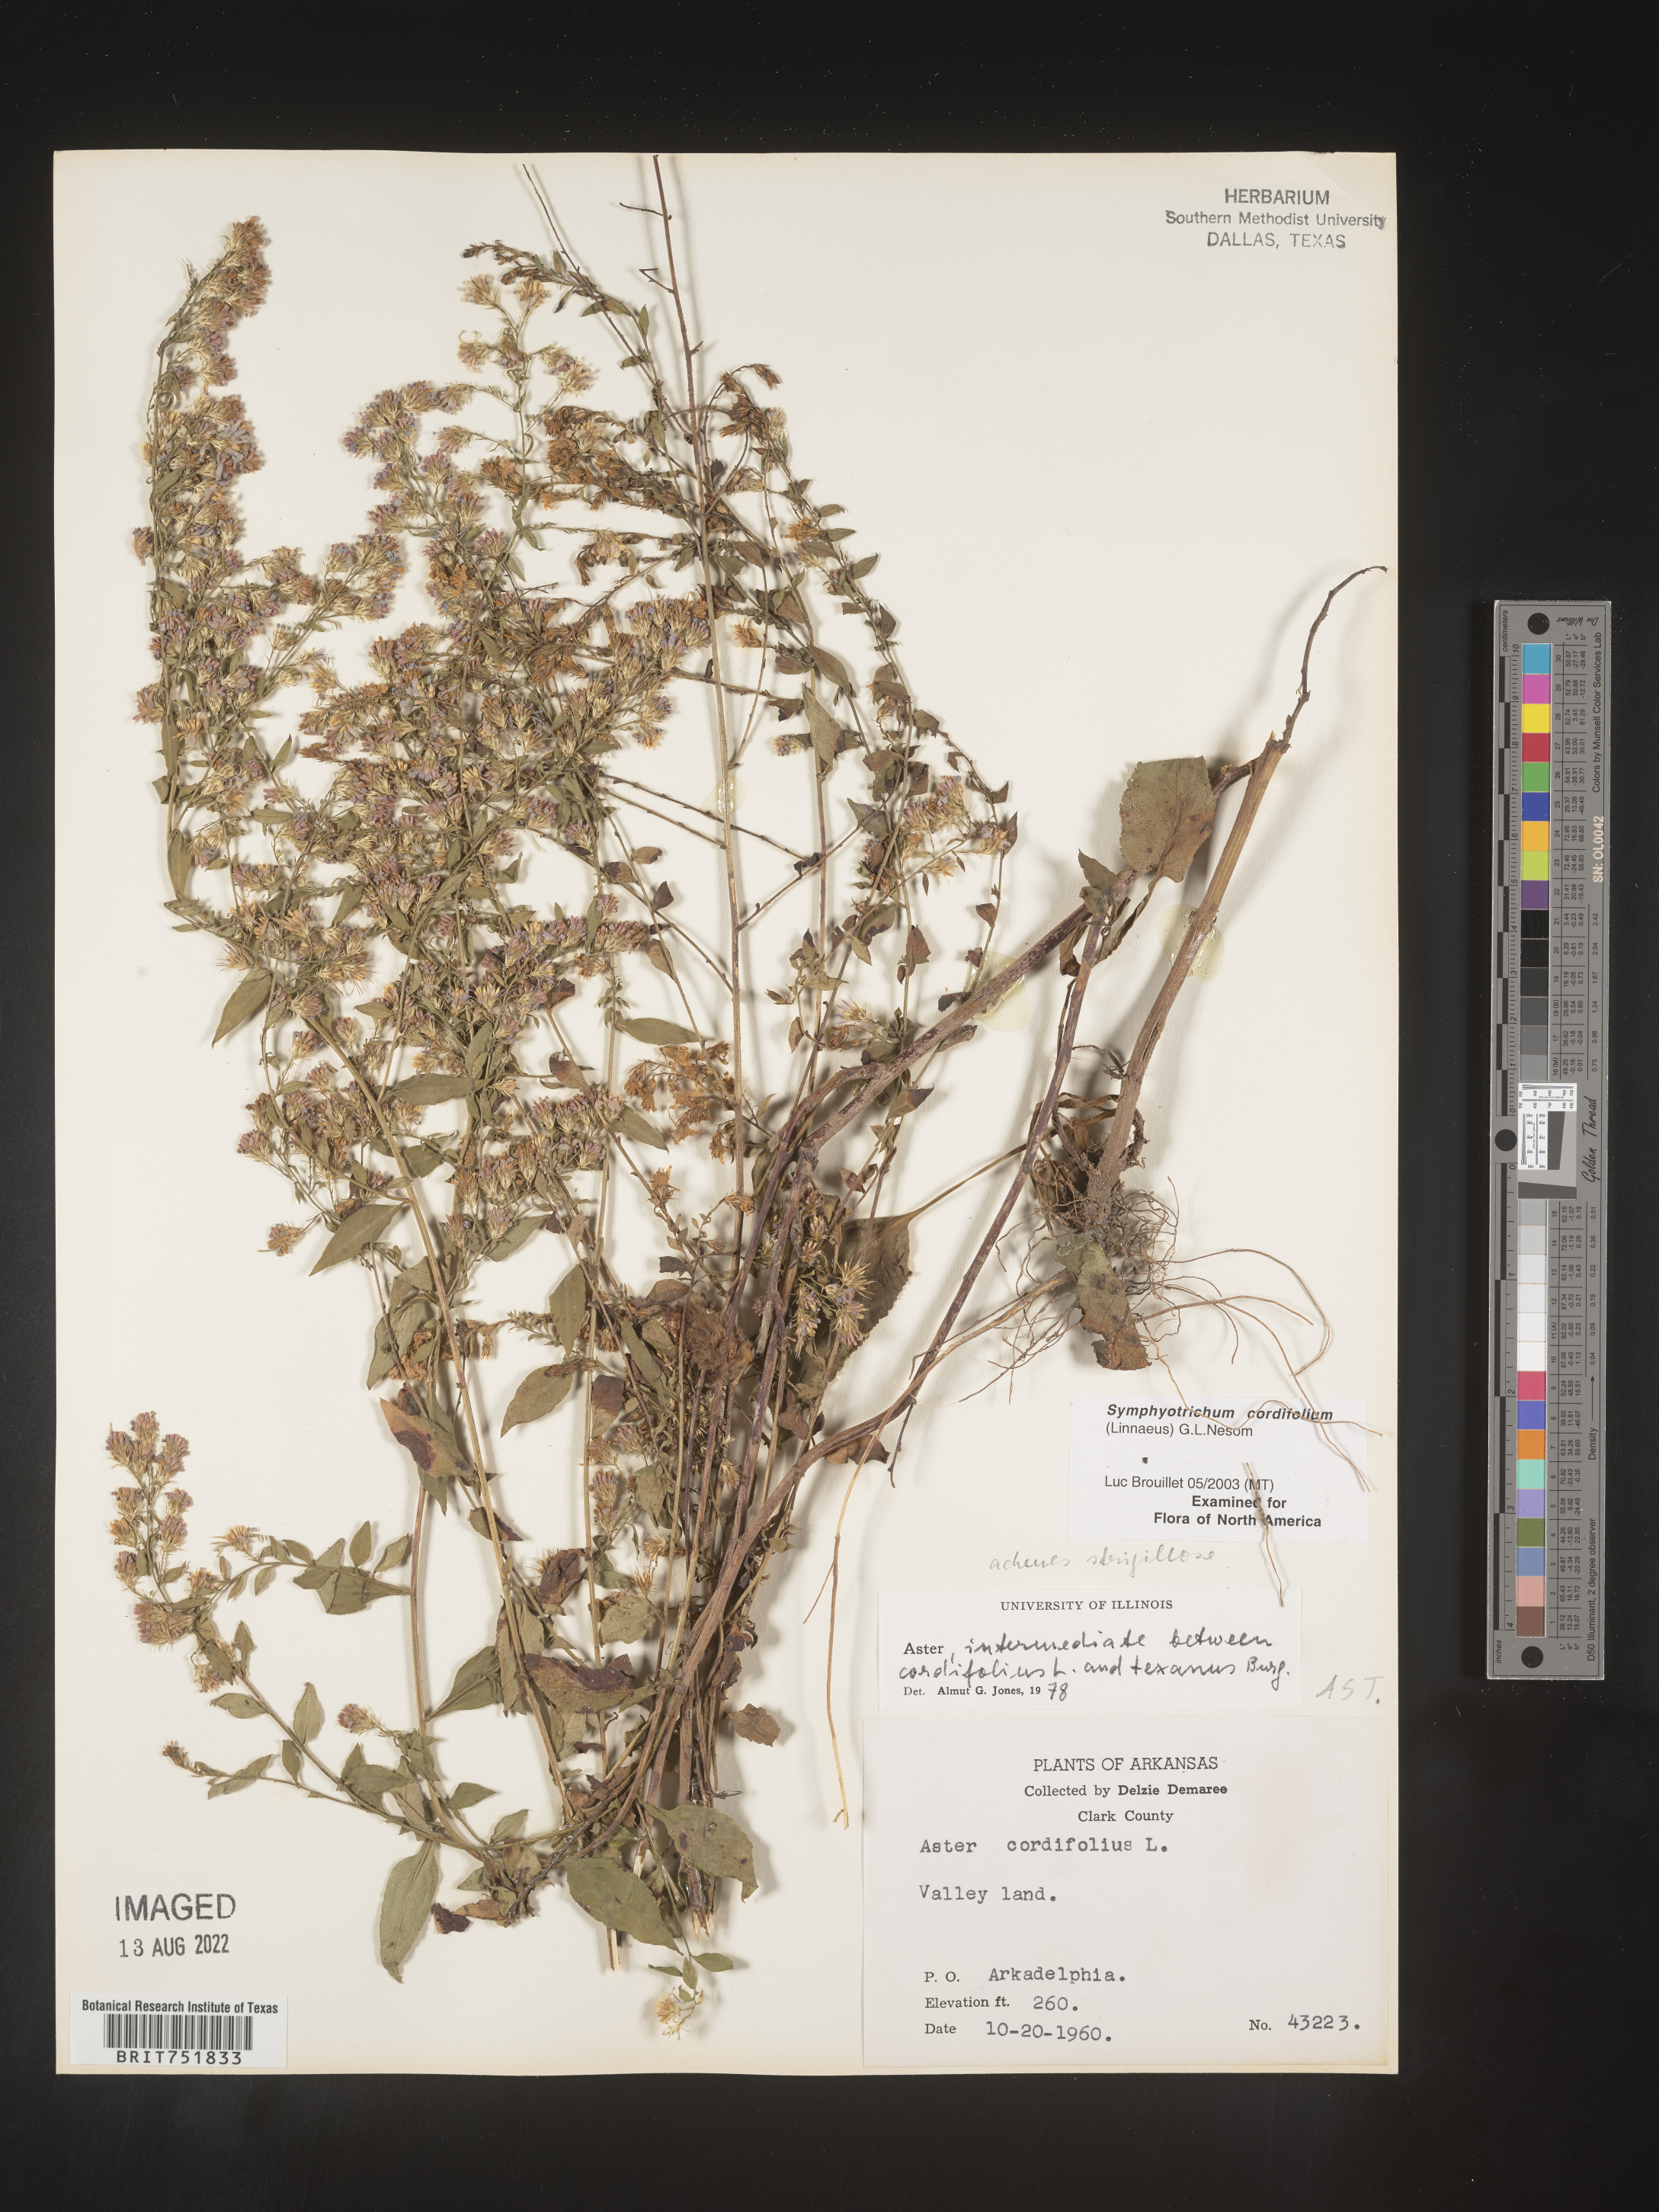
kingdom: Plantae
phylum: Tracheophyta
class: Magnoliopsida
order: Asterales
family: Asteraceae
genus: Symphyotrichum
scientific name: Symphyotrichum drummondii
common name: Drummond's aster
